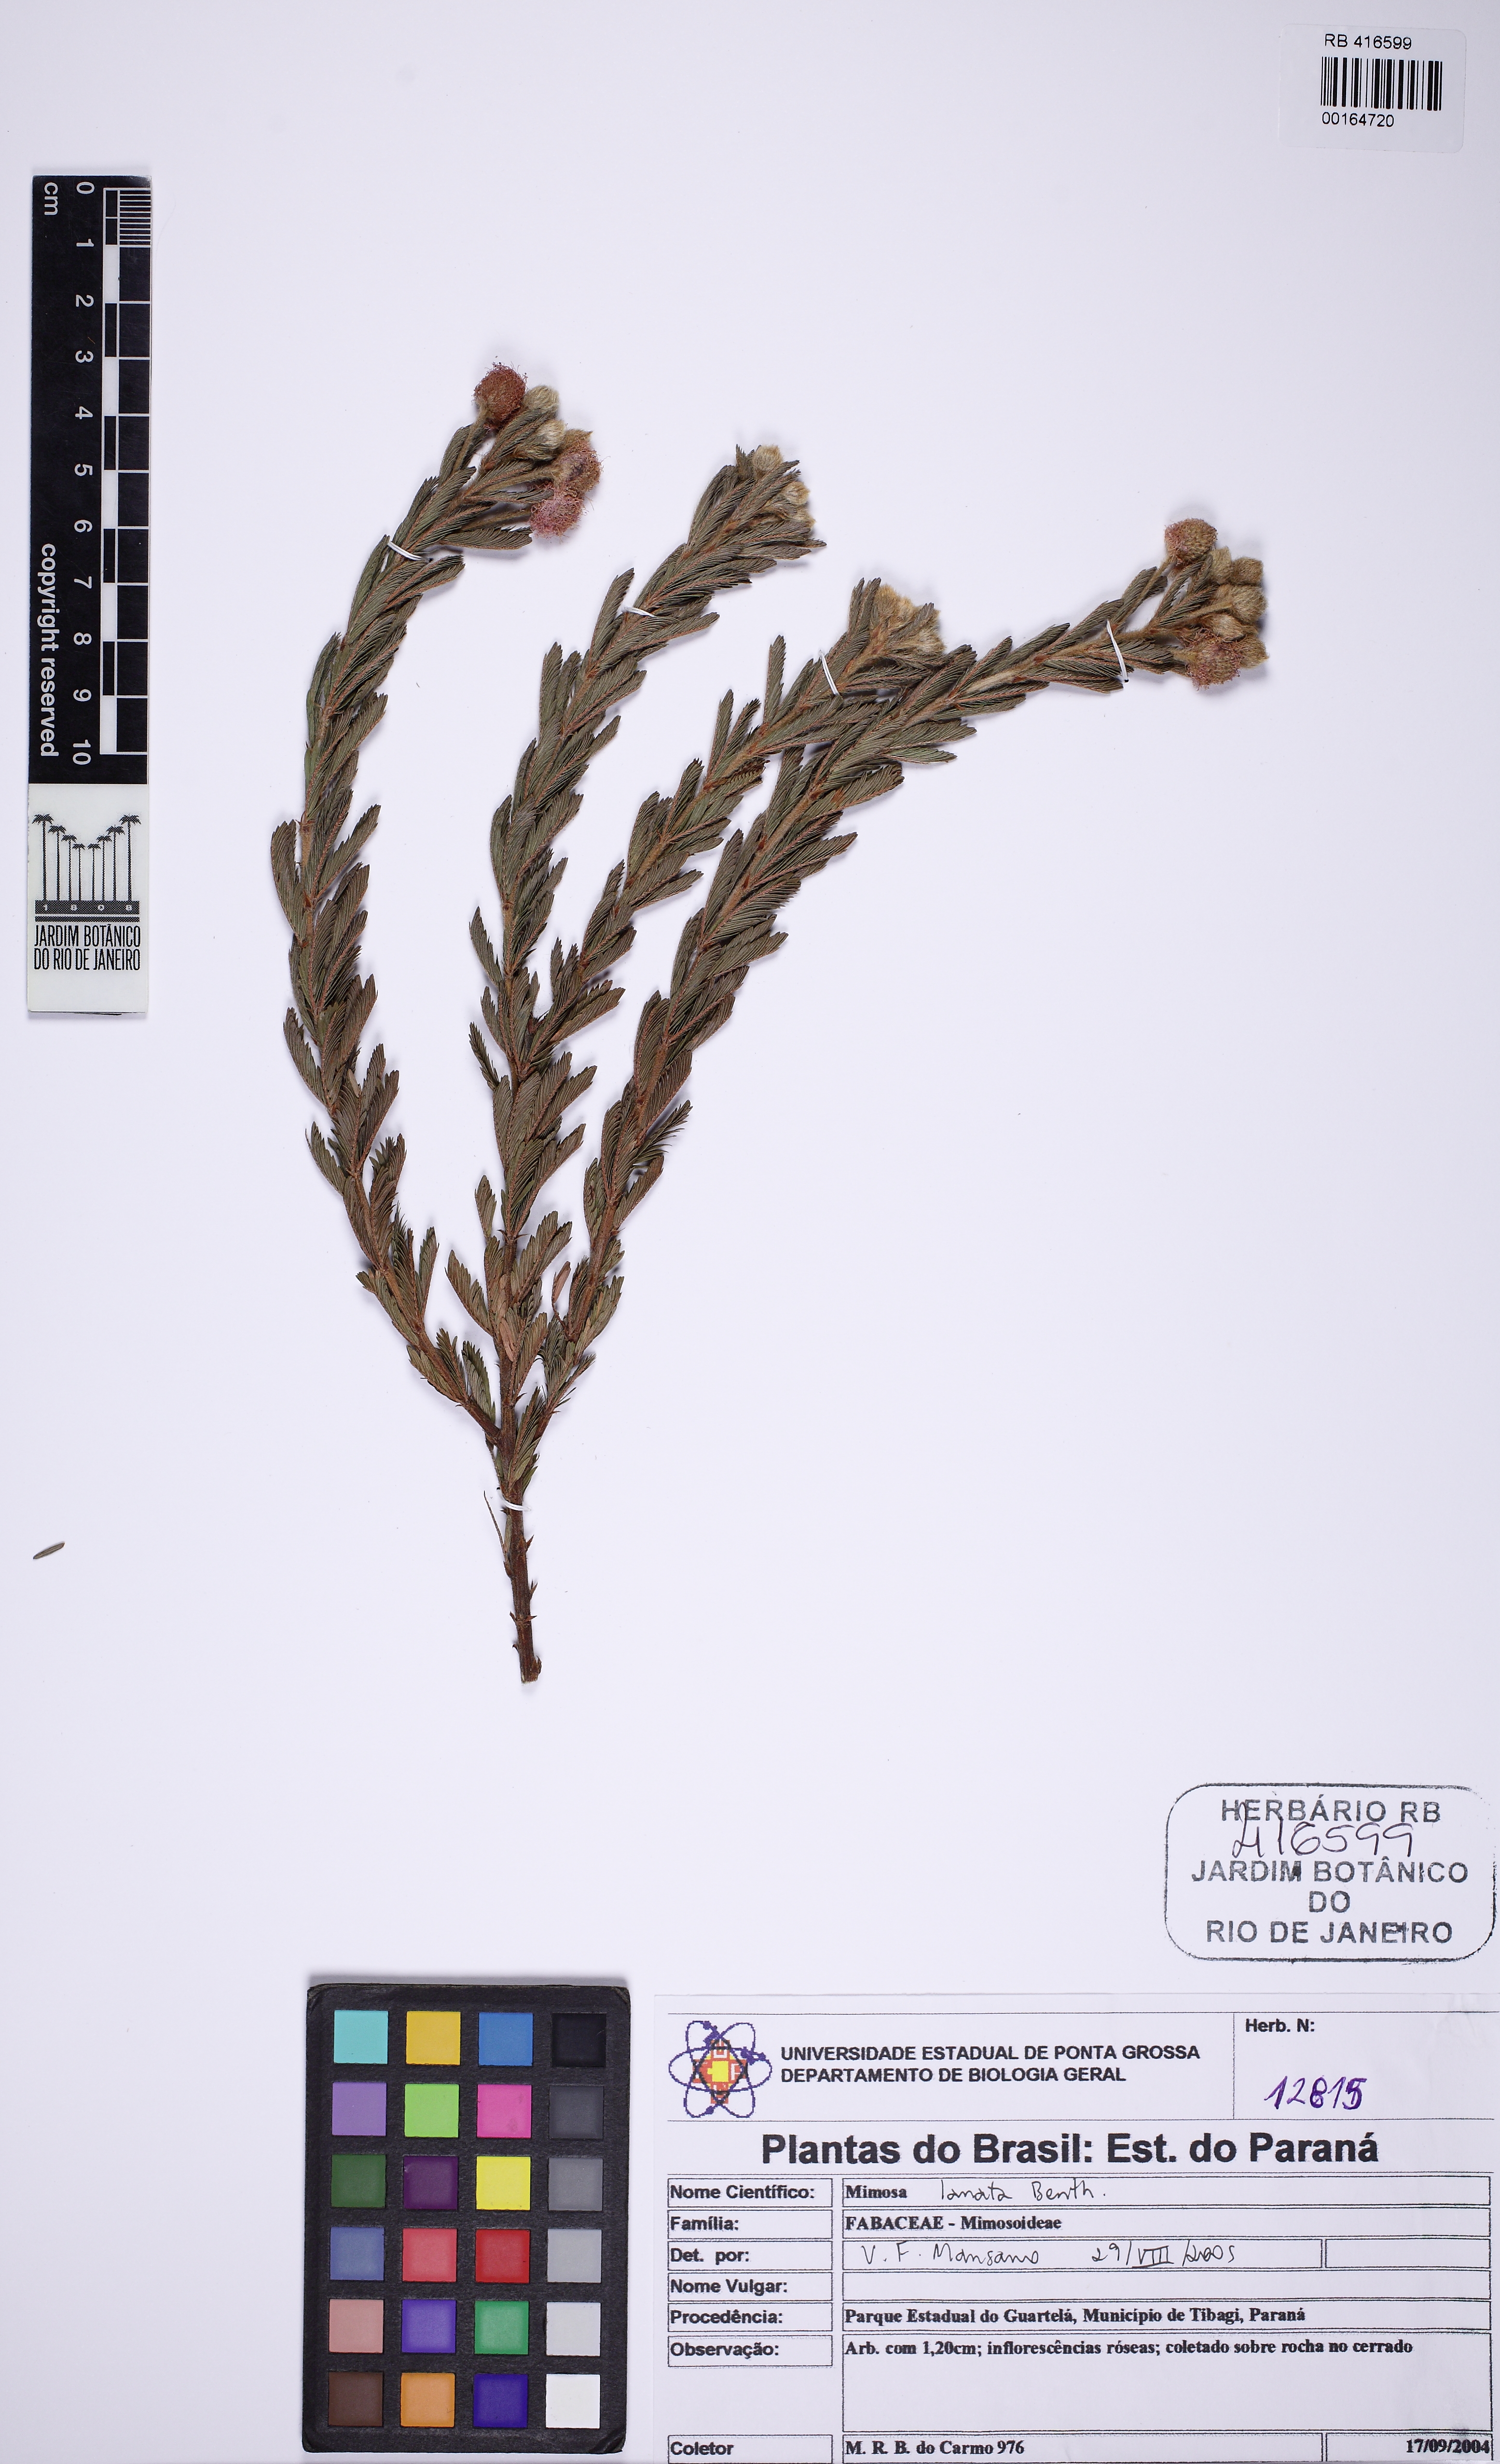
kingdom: Plantae
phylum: Tracheophyta
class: Magnoliopsida
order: Fabales
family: Fabaceae
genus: Mimosa
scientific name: Mimosa lanata
